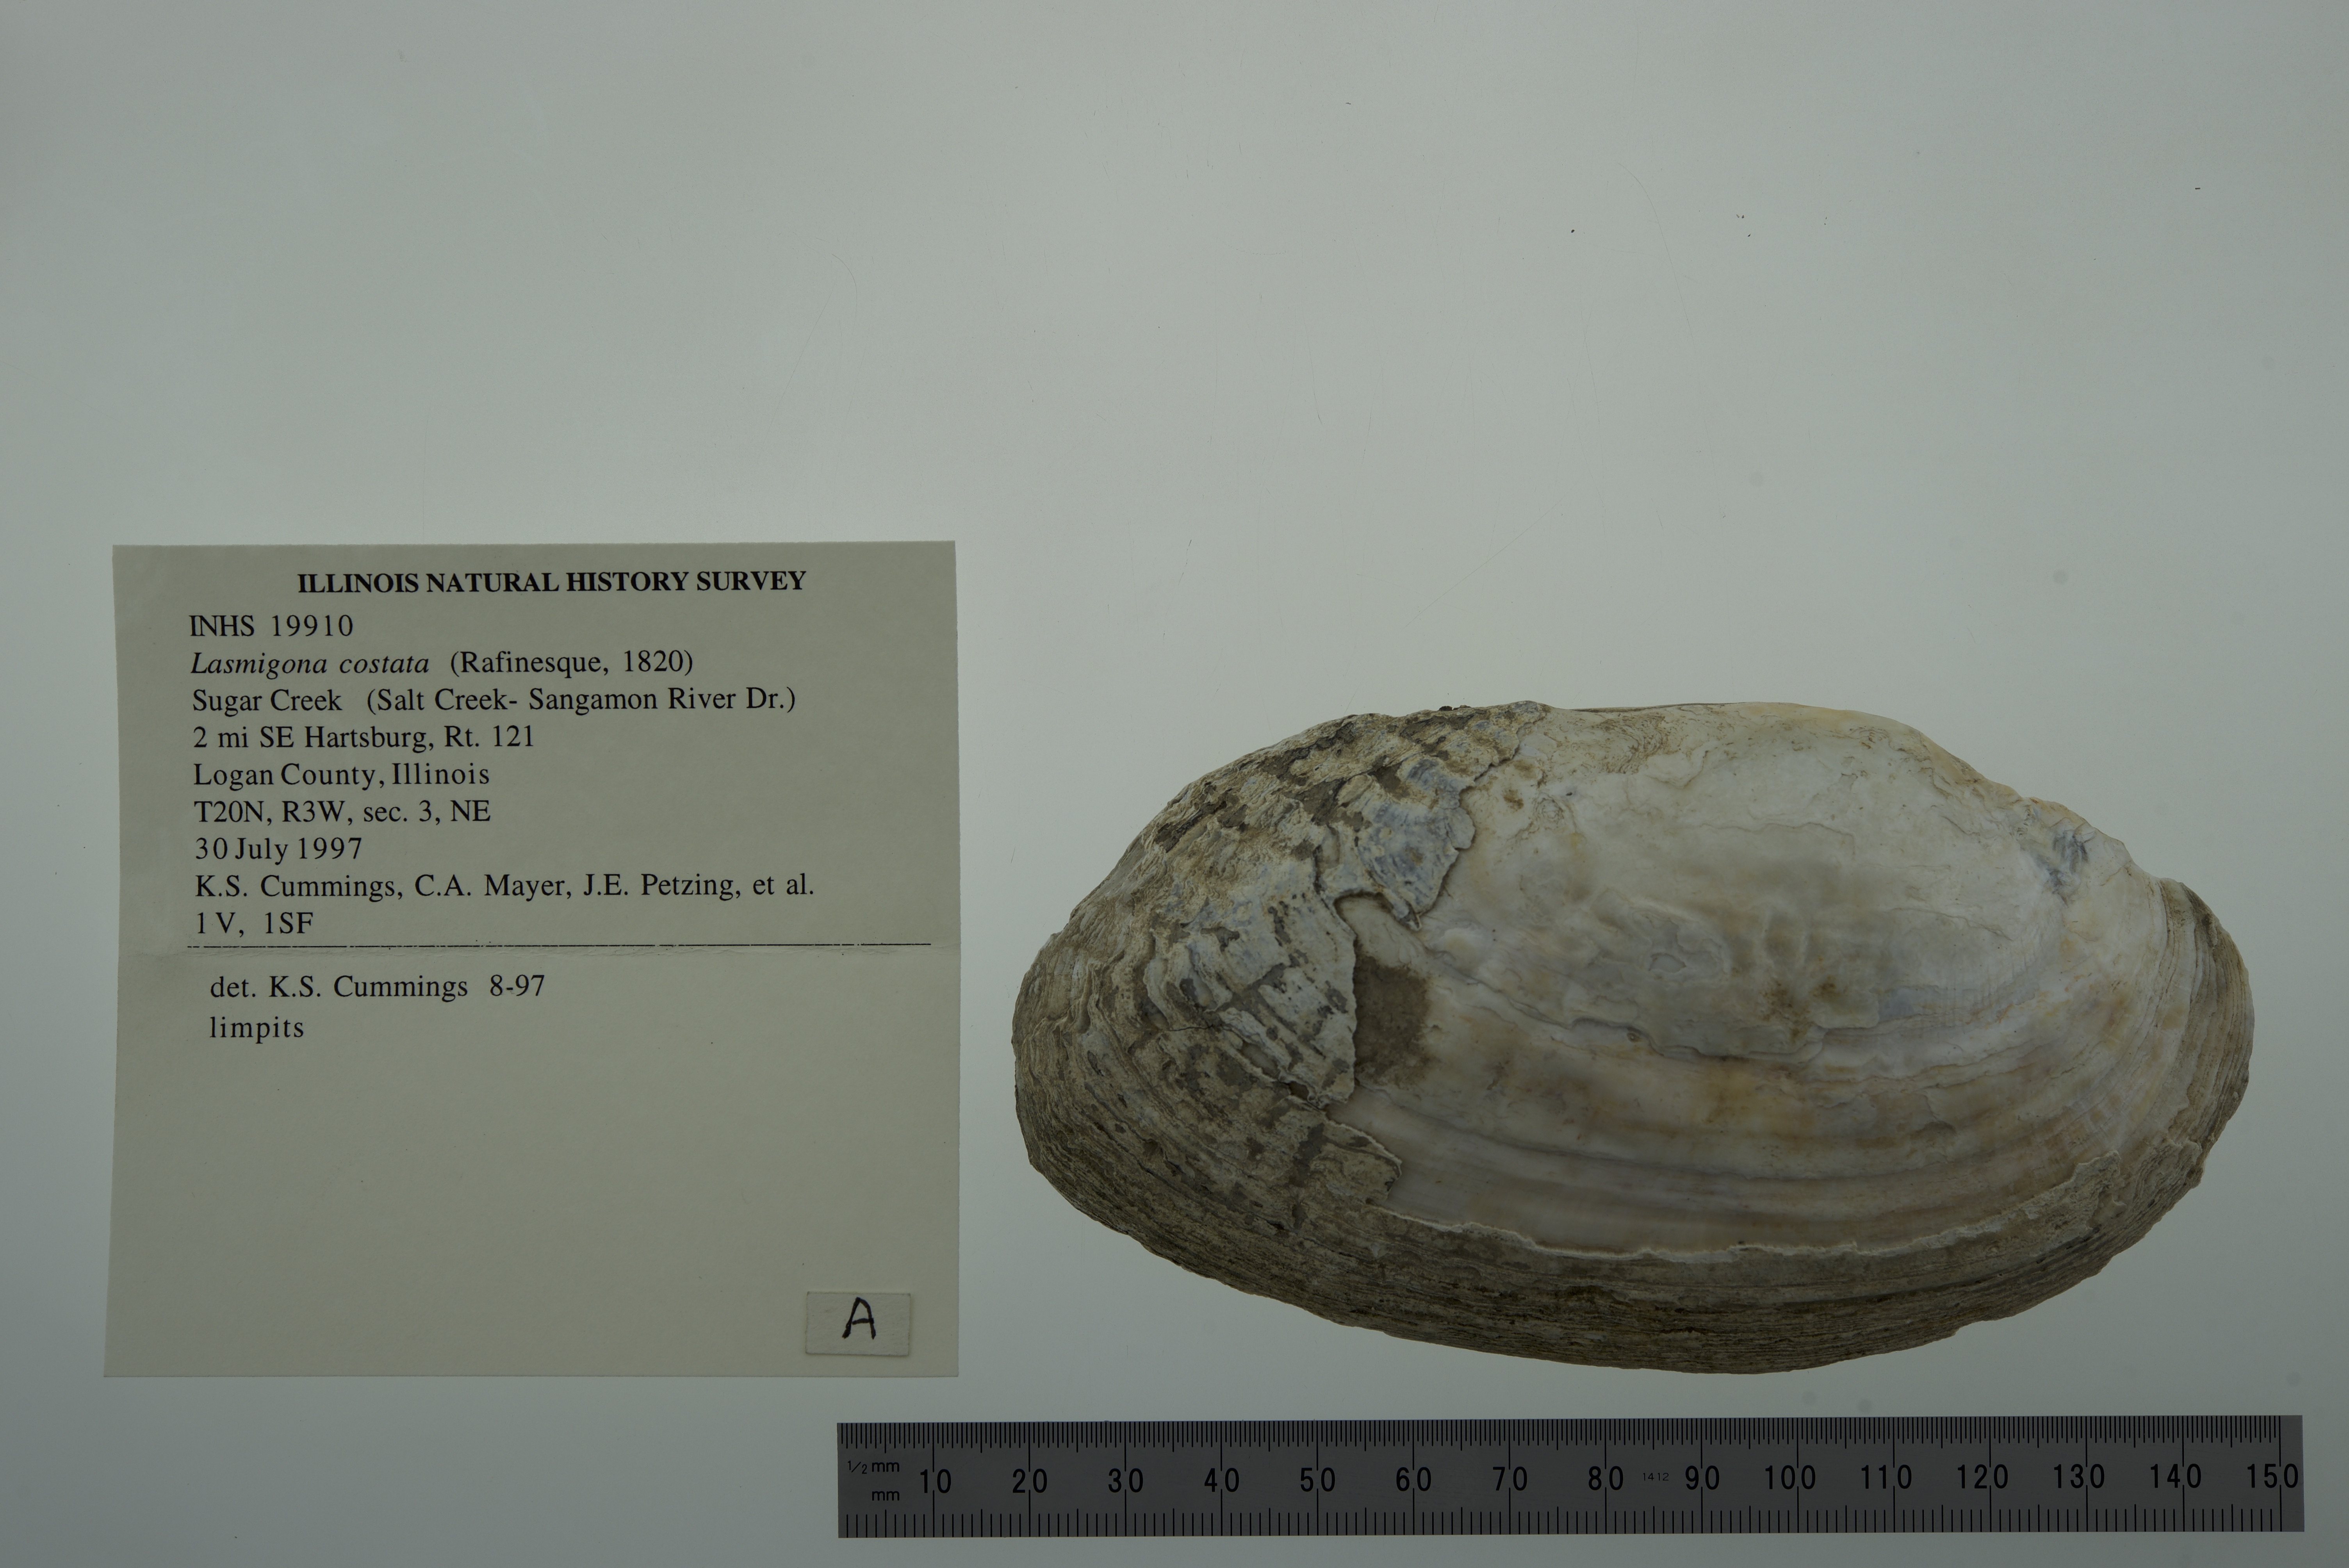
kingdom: Animalia
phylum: Mollusca
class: Bivalvia
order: Unionida
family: Unionidae
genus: Lasmigona
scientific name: Lasmigona costata
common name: Flutedshell
